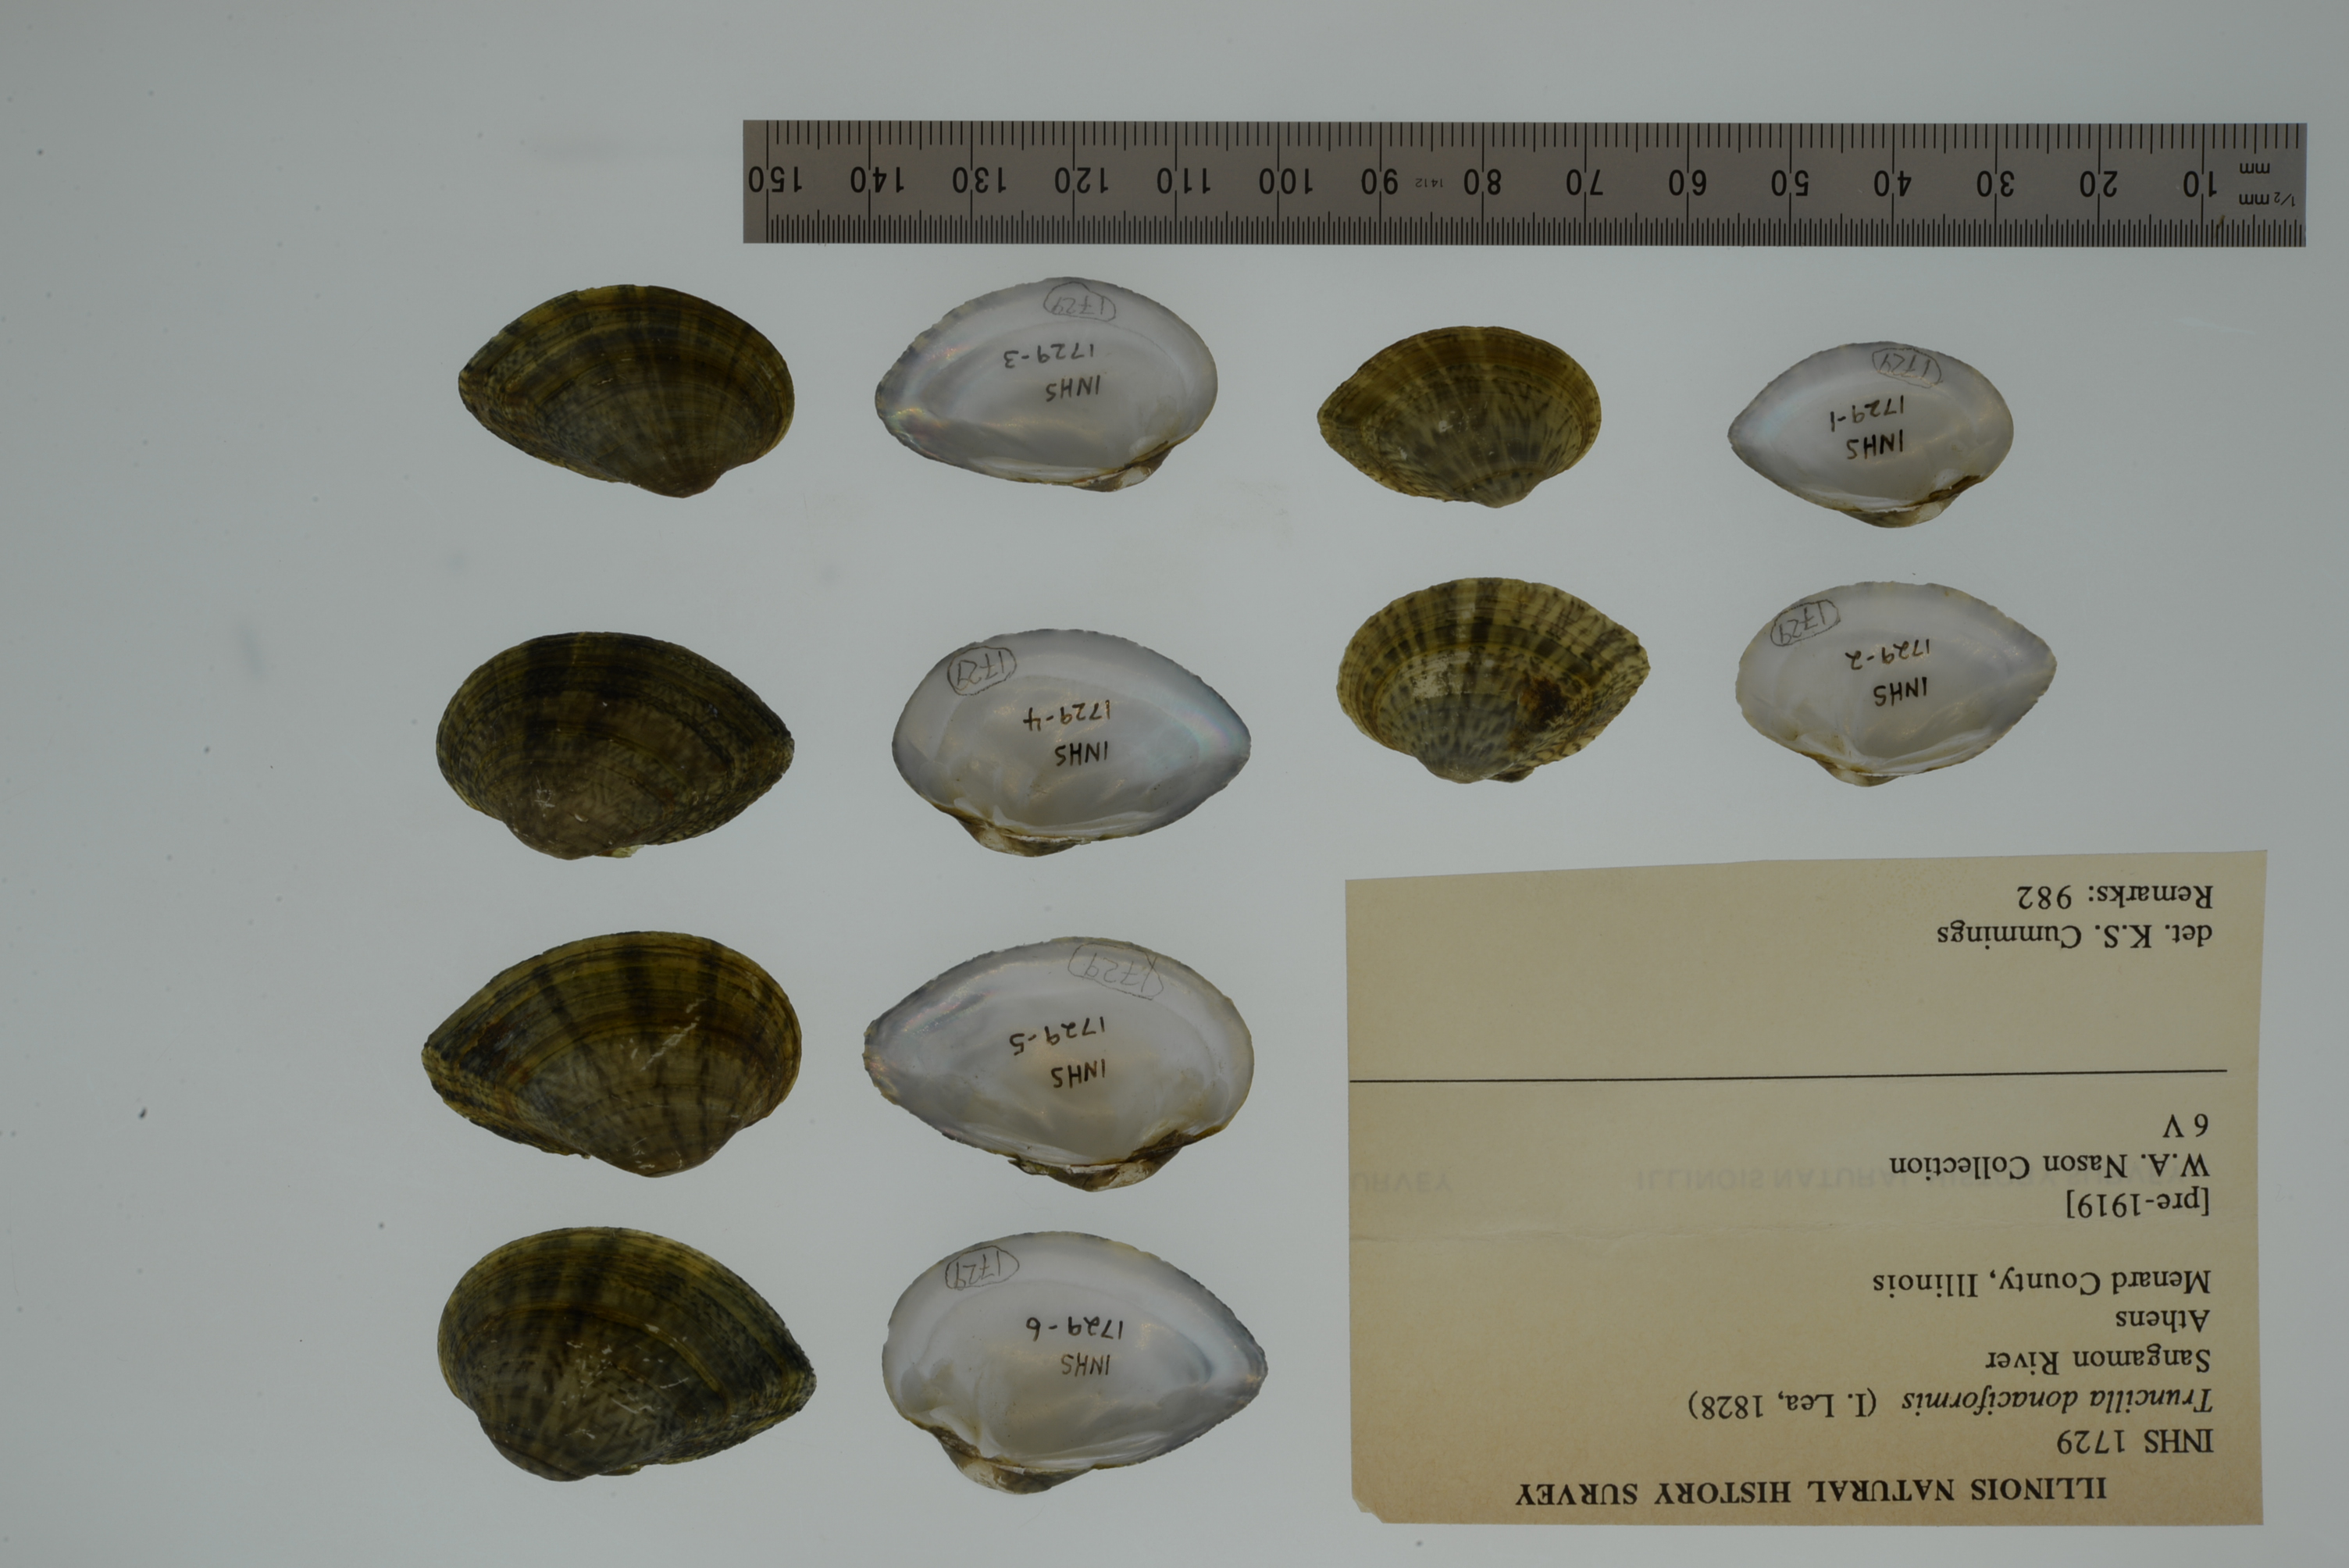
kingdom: Animalia
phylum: Mollusca
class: Bivalvia
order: Unionida
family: Unionidae
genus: Truncilla
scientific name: Truncilla donaciformis
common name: Fawnsfoot
